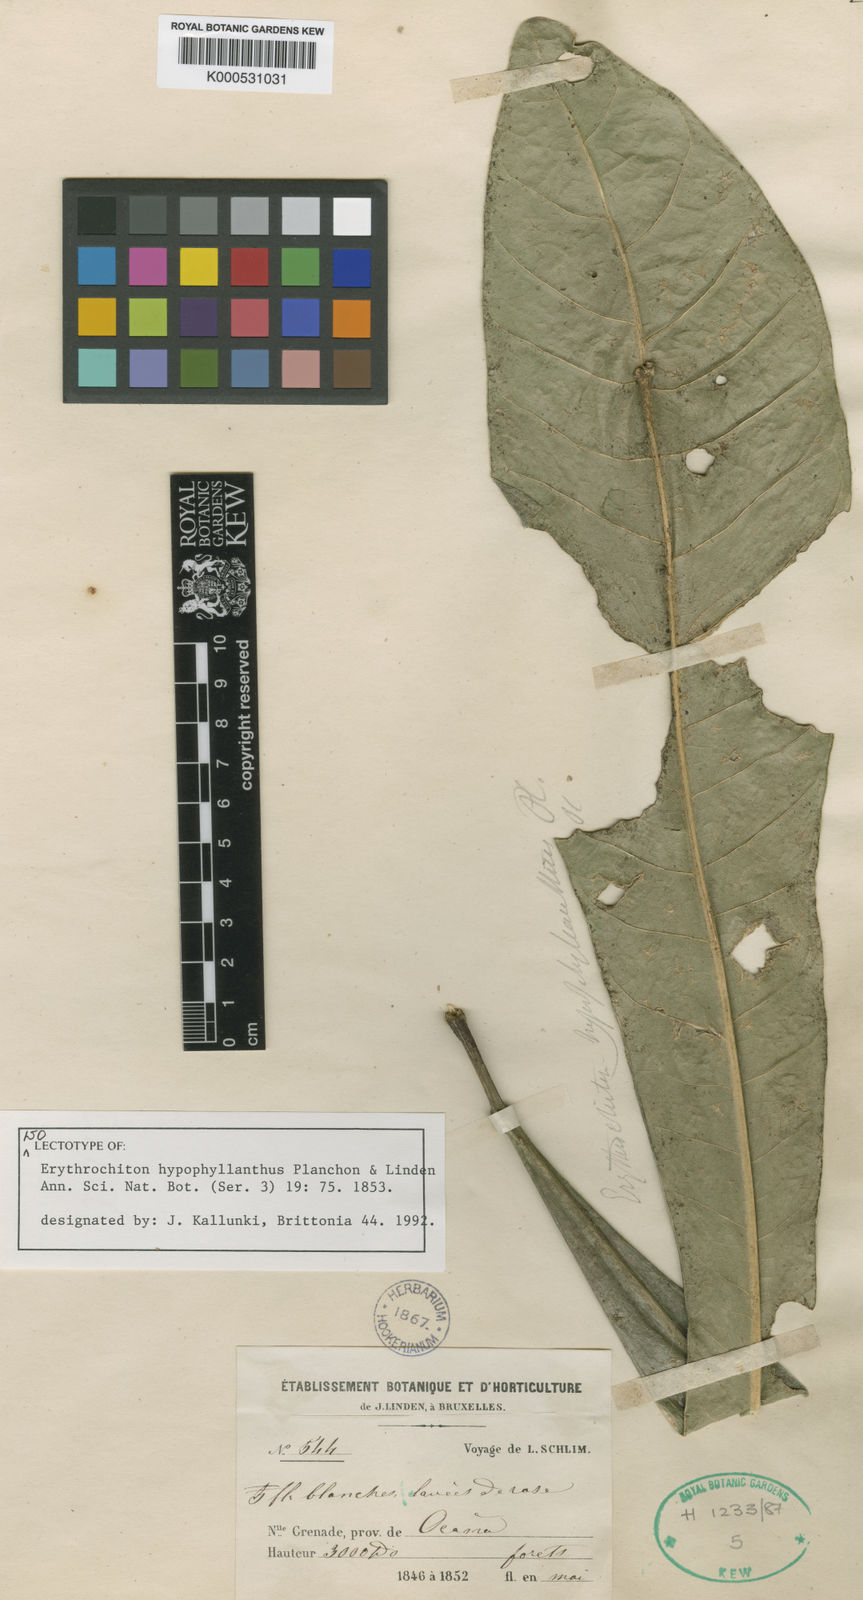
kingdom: Plantae
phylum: Tracheophyta
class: Magnoliopsida
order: Sapindales
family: Rutaceae
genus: Erythrochiton
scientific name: Erythrochiton hypophyllanthus
